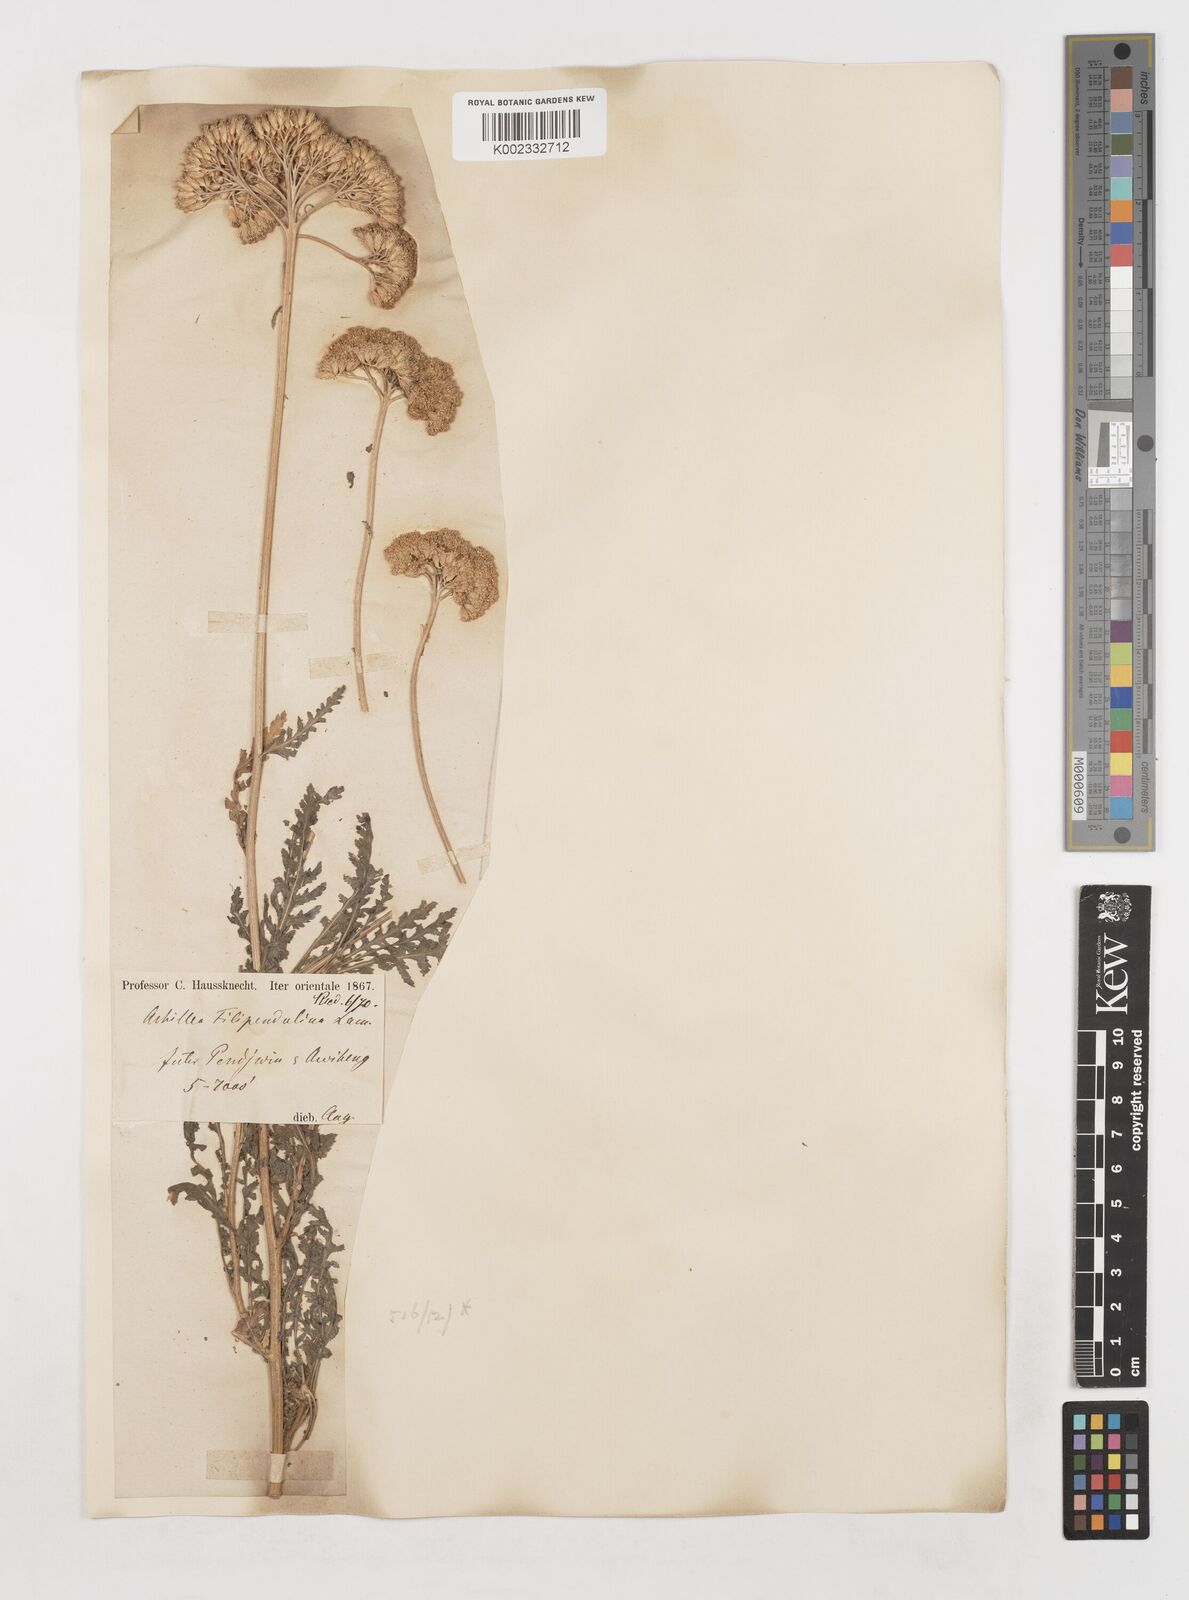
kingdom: Plantae
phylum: Tracheophyta
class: Magnoliopsida
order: Asterales
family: Asteraceae
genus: Achillea
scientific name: Achillea filipendulina
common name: Fernleaf yarrow
